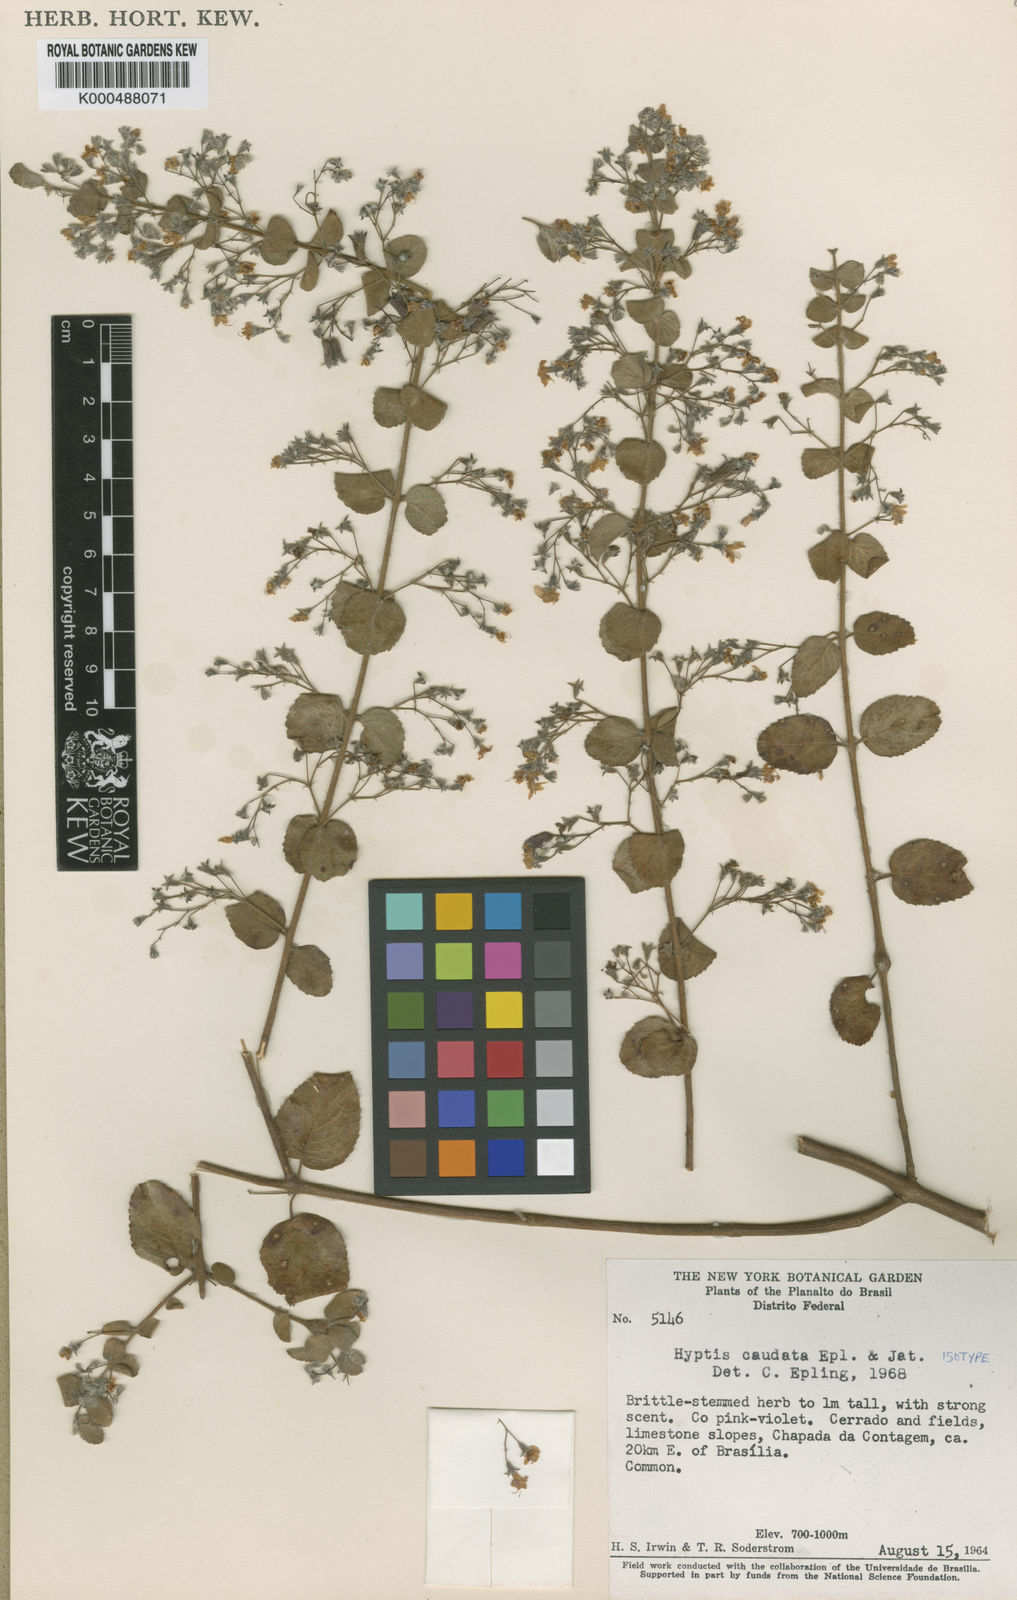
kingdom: Plantae
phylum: Tracheophyta
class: Magnoliopsida
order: Lamiales
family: Lamiaceae
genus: Hyptidendron
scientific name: Hyptidendron
